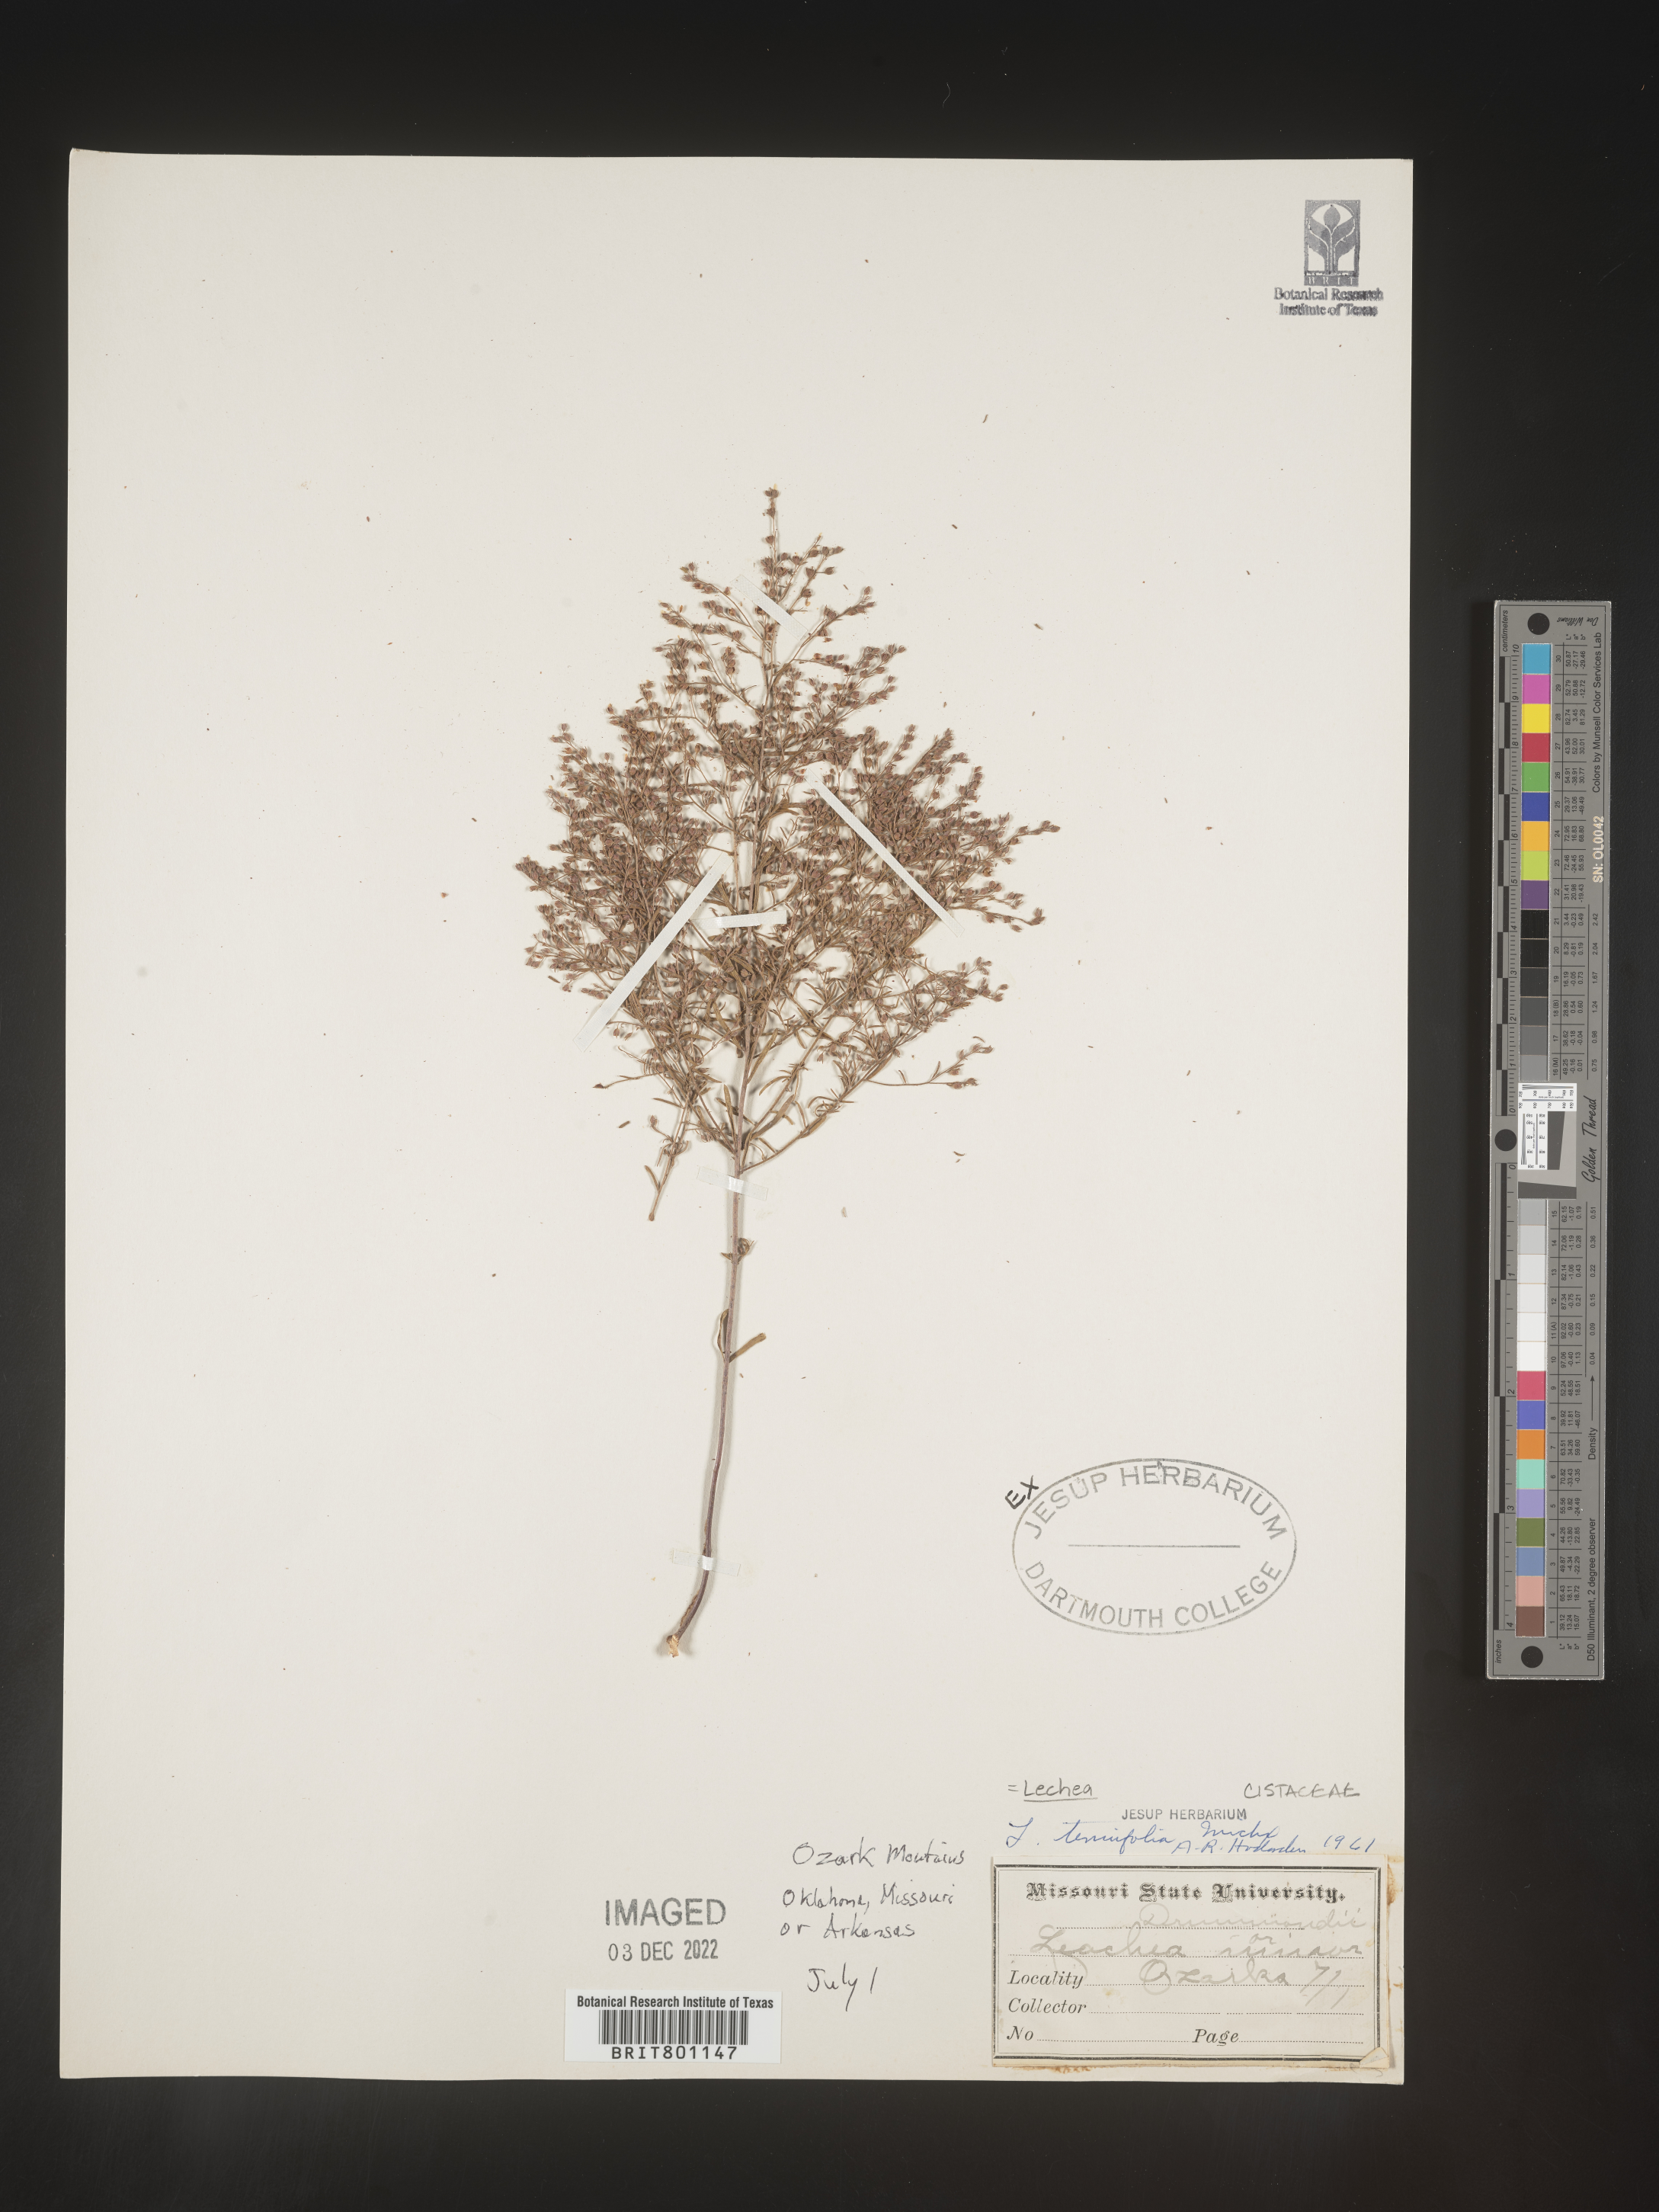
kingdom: Plantae
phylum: Tracheophyta
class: Magnoliopsida
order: Malvales
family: Cistaceae
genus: Lechea
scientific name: Lechea tenuifolia
